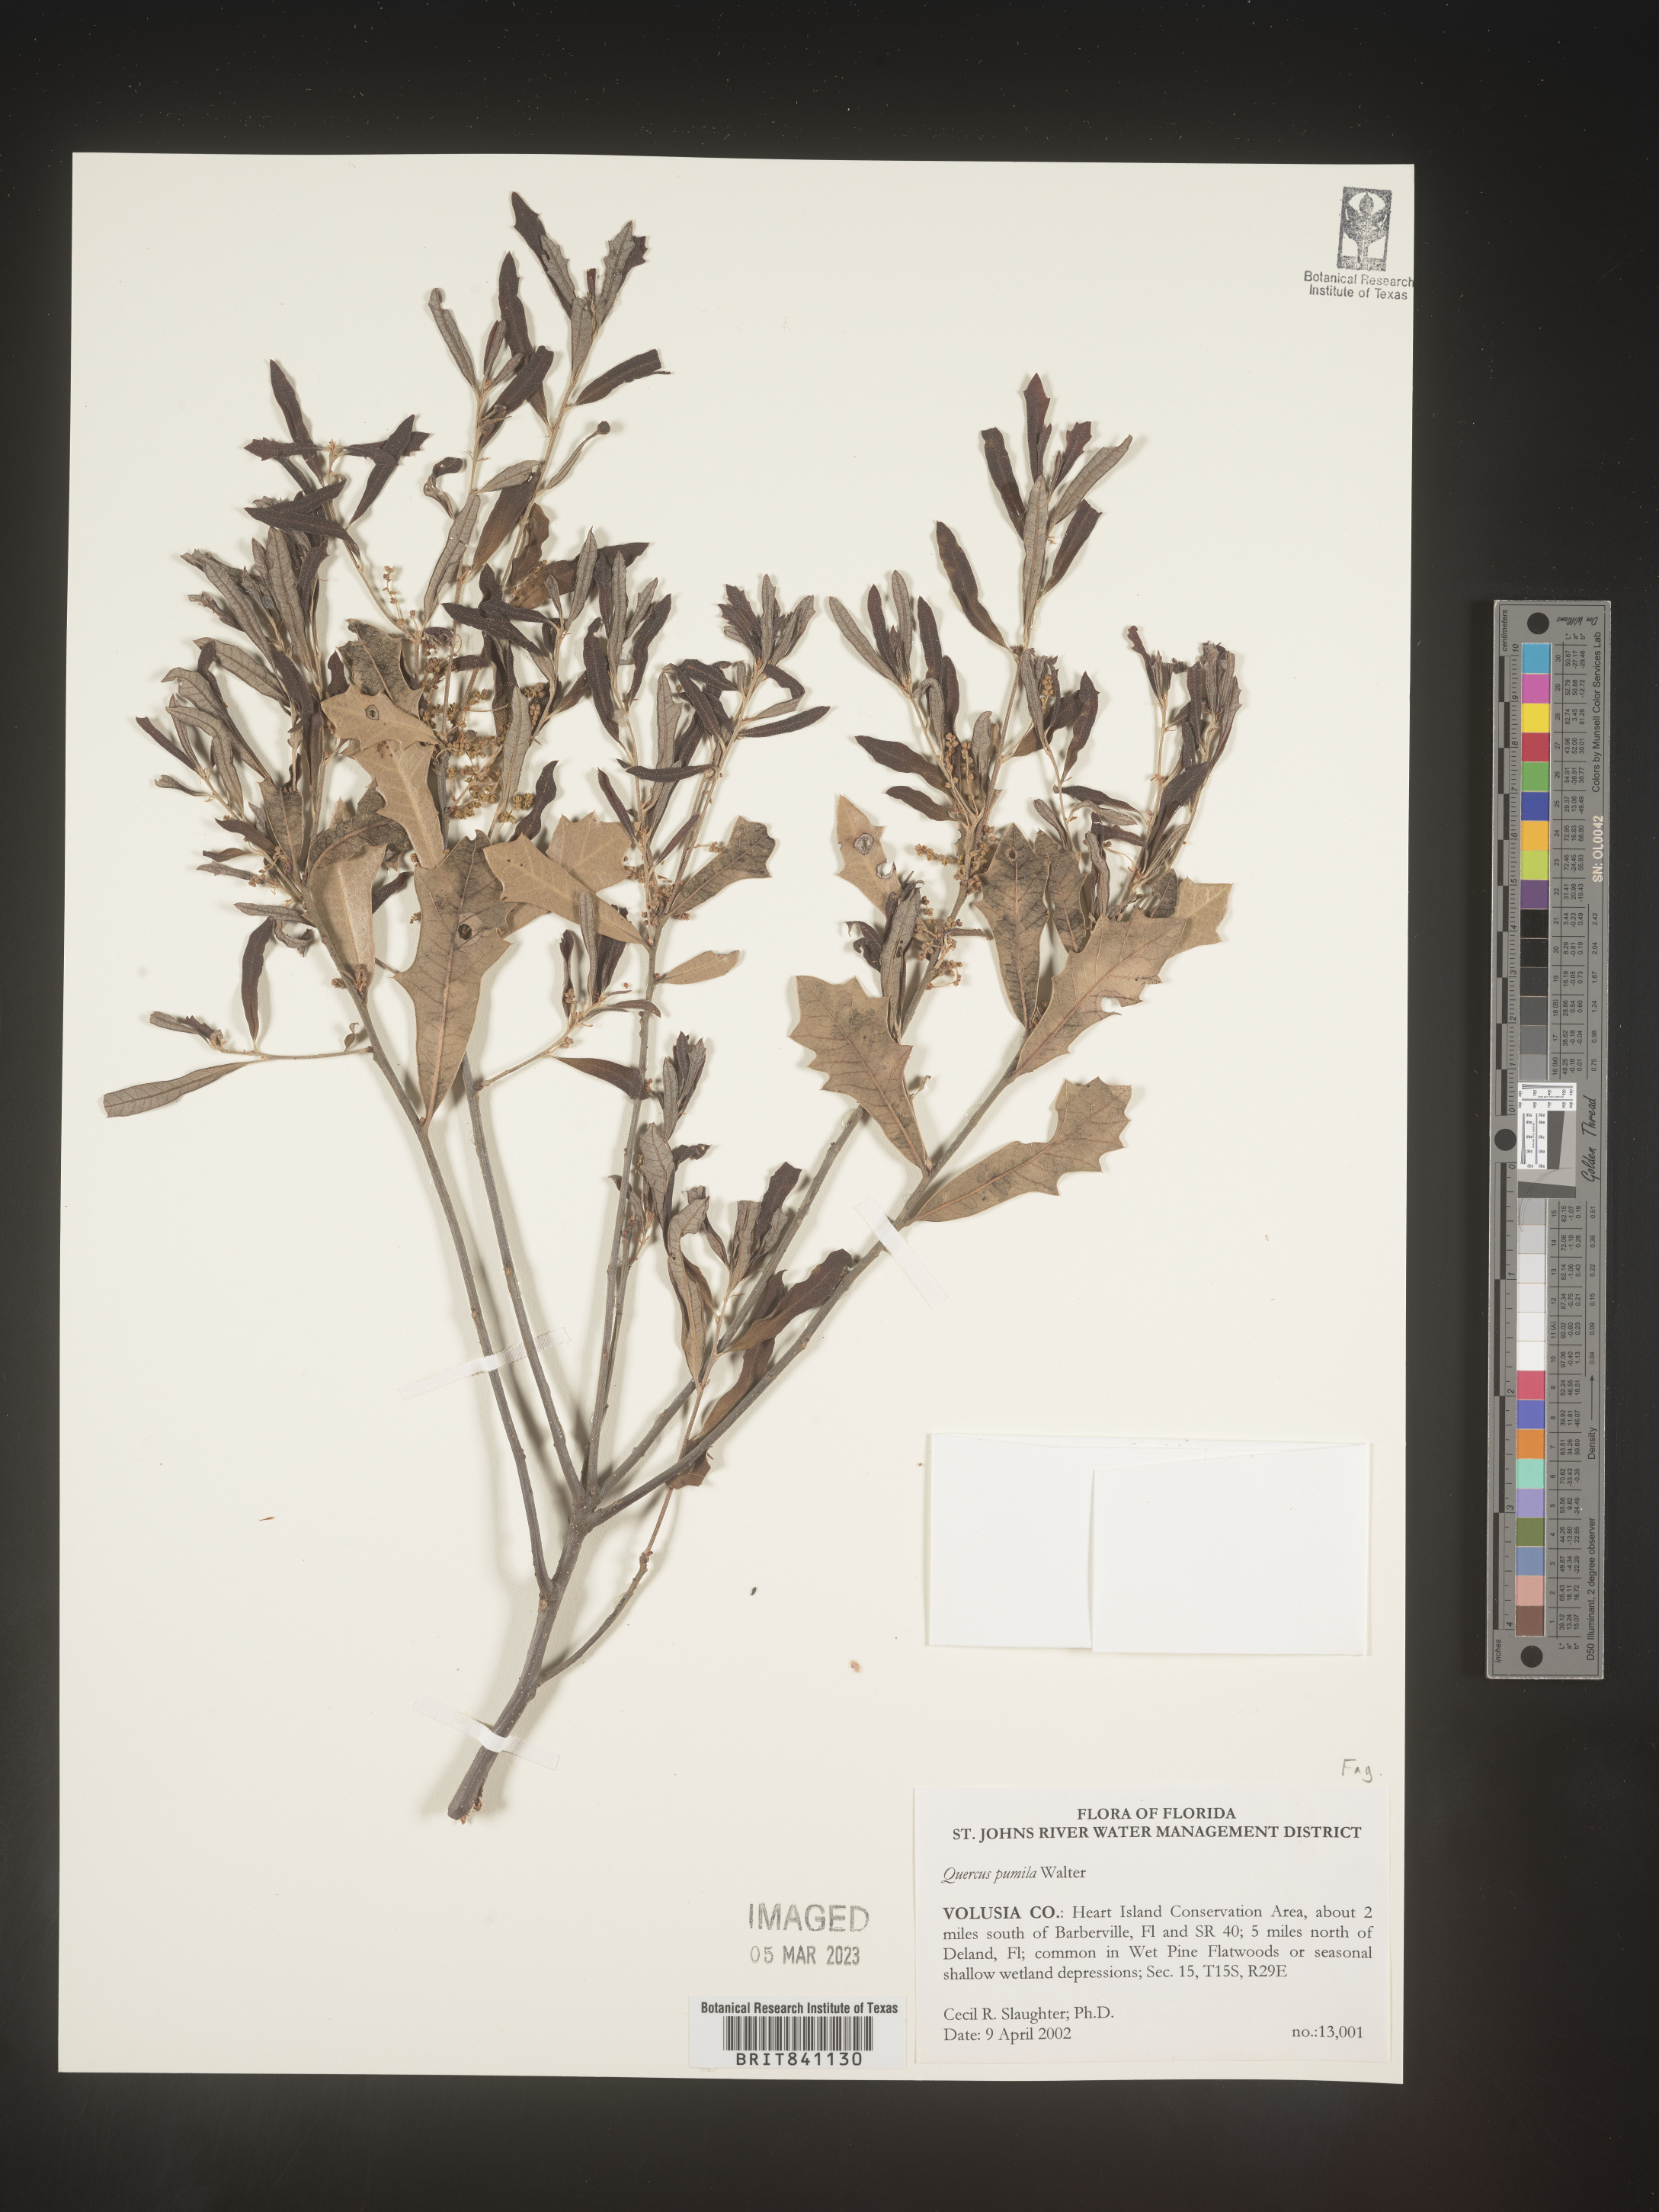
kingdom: Plantae
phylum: Tracheophyta
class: Magnoliopsida
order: Fagales
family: Fagaceae
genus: Quercus
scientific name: Quercus pumila
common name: Runner oak
